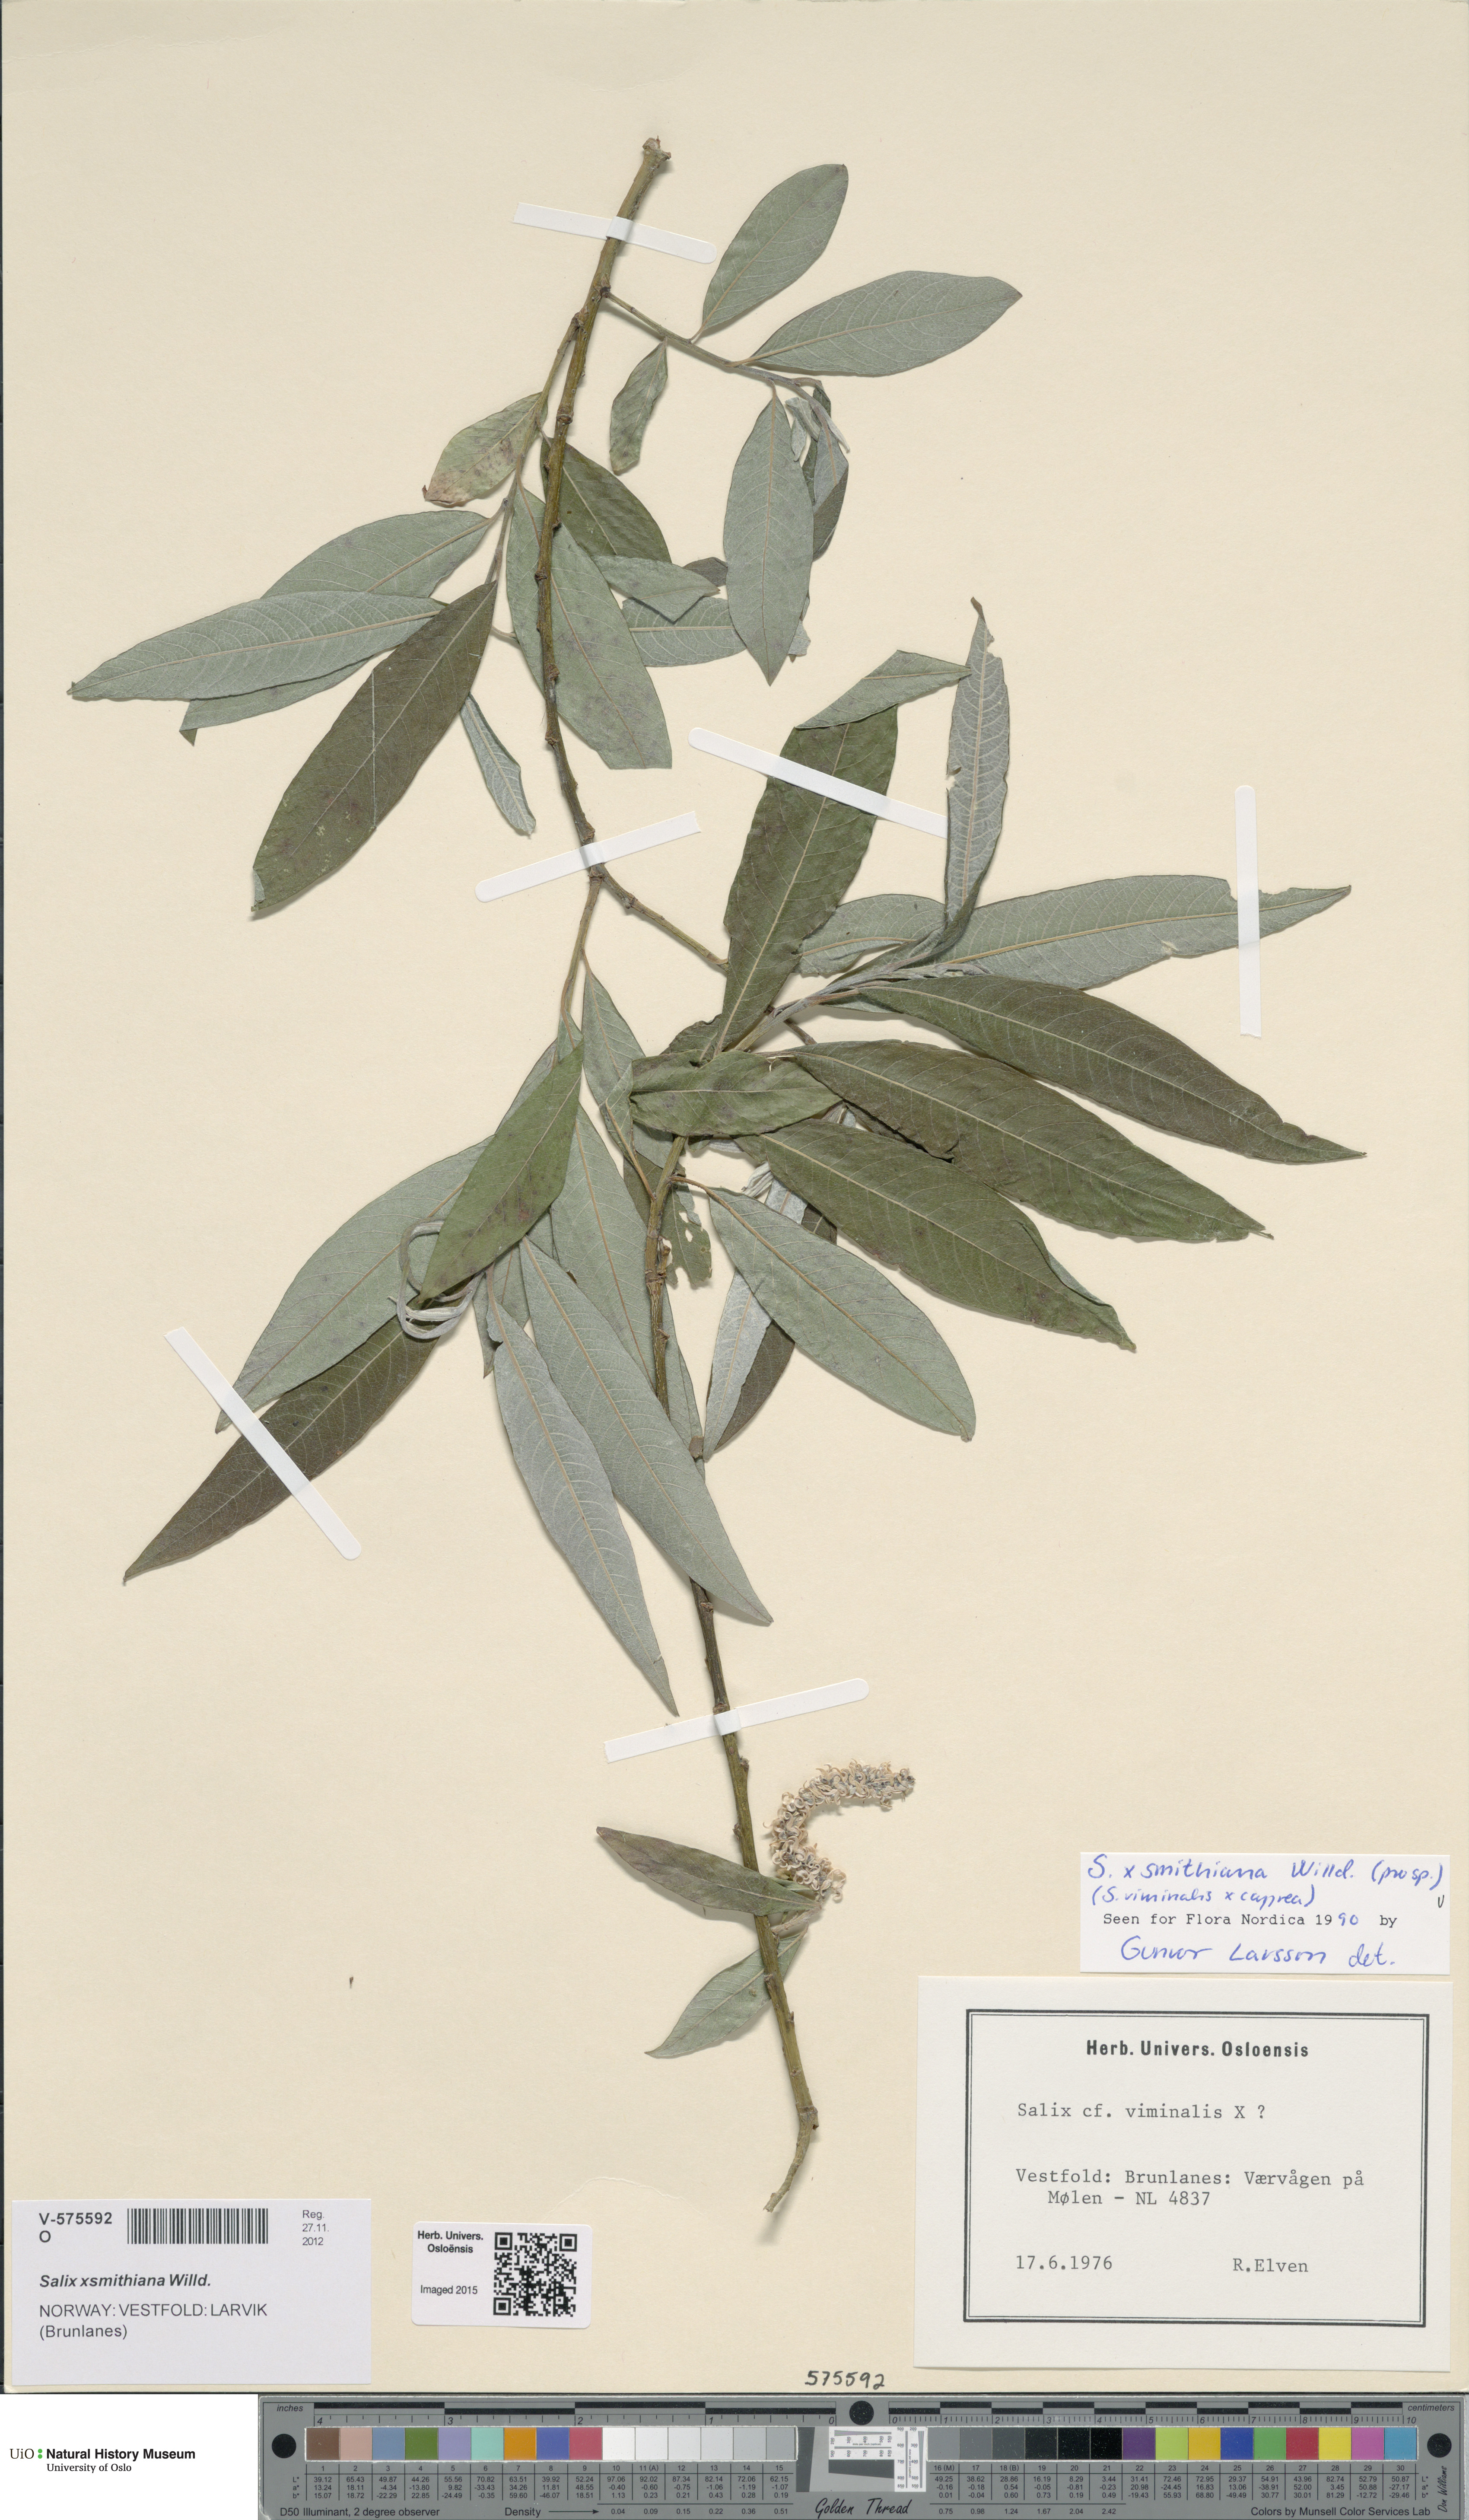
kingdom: Plantae
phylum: Tracheophyta
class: Magnoliopsida
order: Malpighiales
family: Salicaceae
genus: Salix
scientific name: Salix smithiana
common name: Silky-leaved osier
